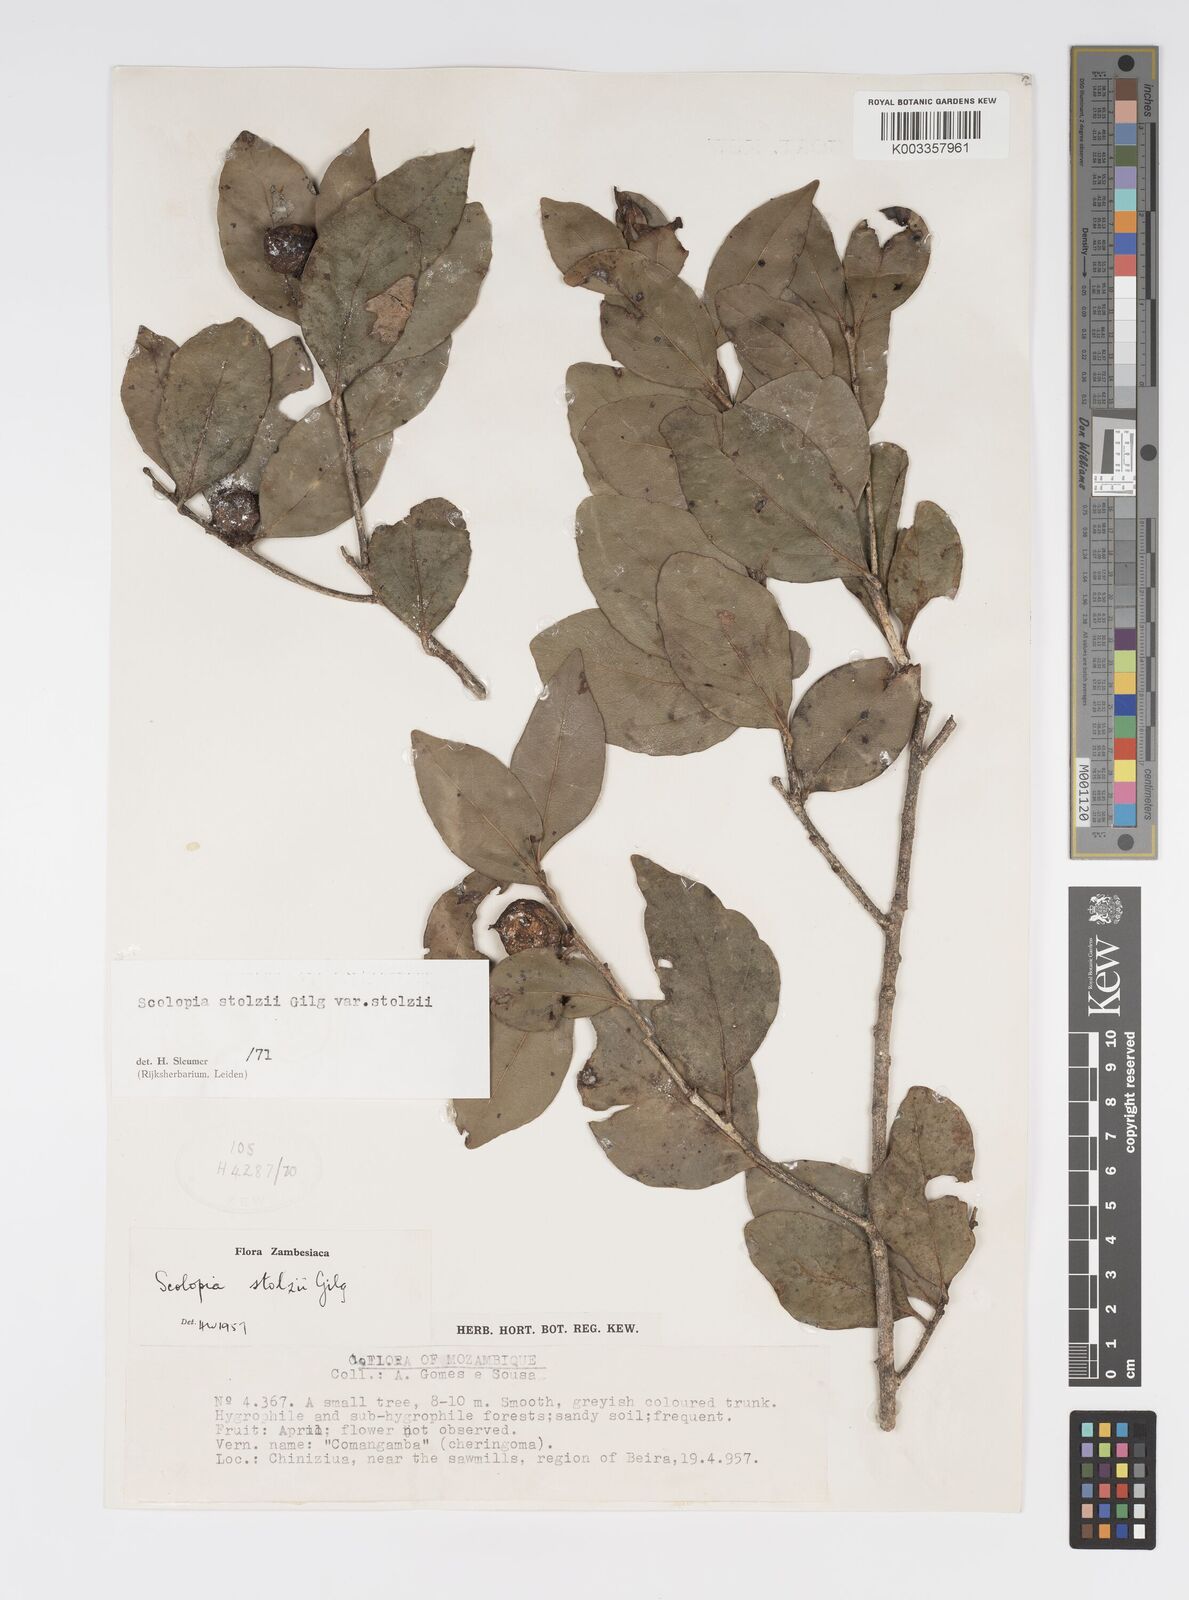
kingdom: Plantae
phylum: Tracheophyta
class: Magnoliopsida
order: Malpighiales
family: Salicaceae
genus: Scolopia
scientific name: Scolopia stolzii
